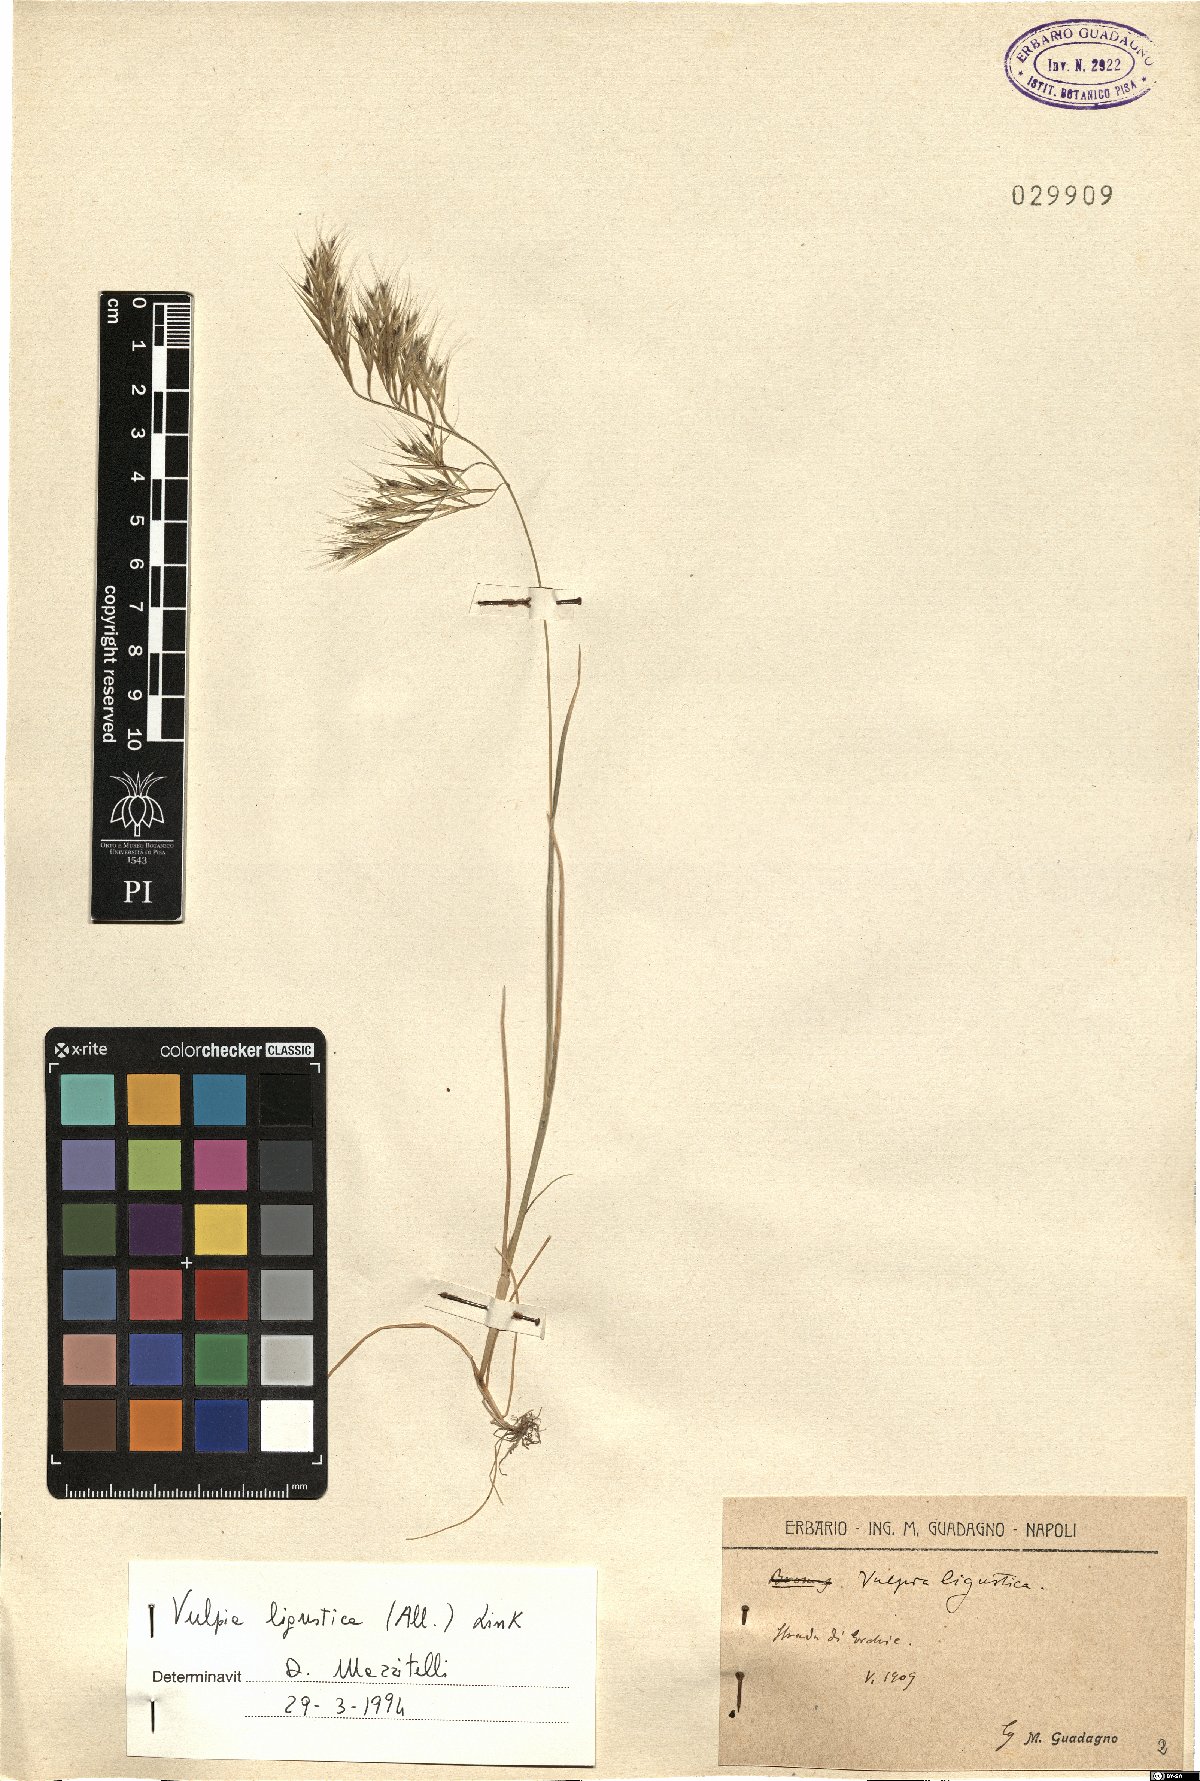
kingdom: Plantae
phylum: Tracheophyta
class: Liliopsida
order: Poales
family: Poaceae
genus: Festuca
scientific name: Festuca ligustica
